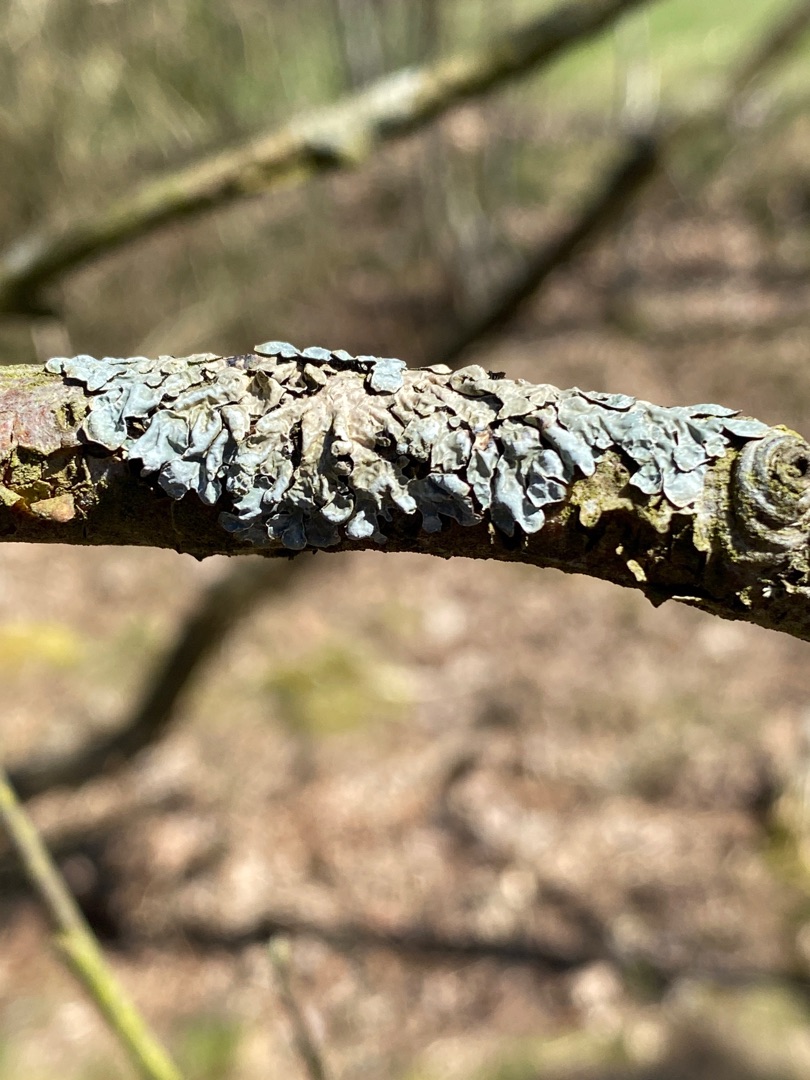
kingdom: Fungi
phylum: Ascomycota
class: Lecanoromycetes
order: Lecanorales
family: Parmeliaceae
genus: Parmelia
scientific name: Parmelia sulcata
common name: Rynket skållav
